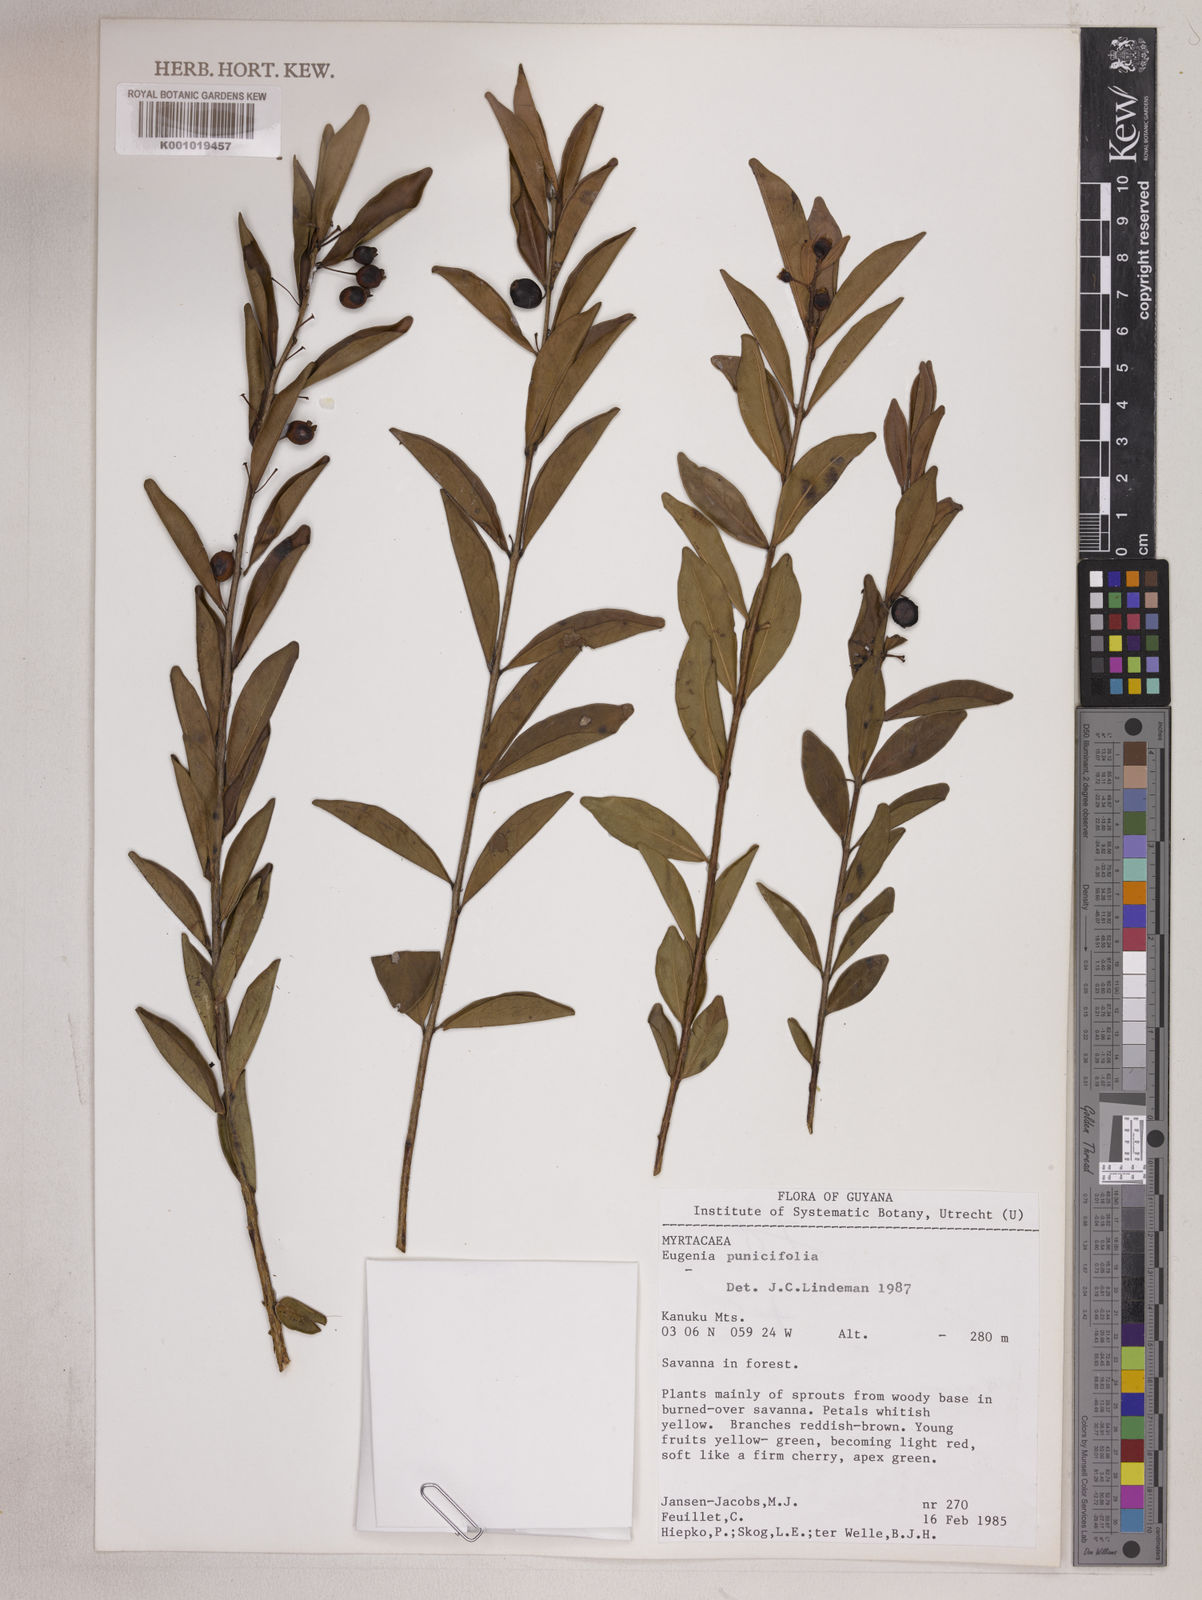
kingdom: Plantae
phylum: Tracheophyta
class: Magnoliopsida
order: Myrtales
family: Myrtaceae
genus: Eugenia
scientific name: Eugenia punicifolia
